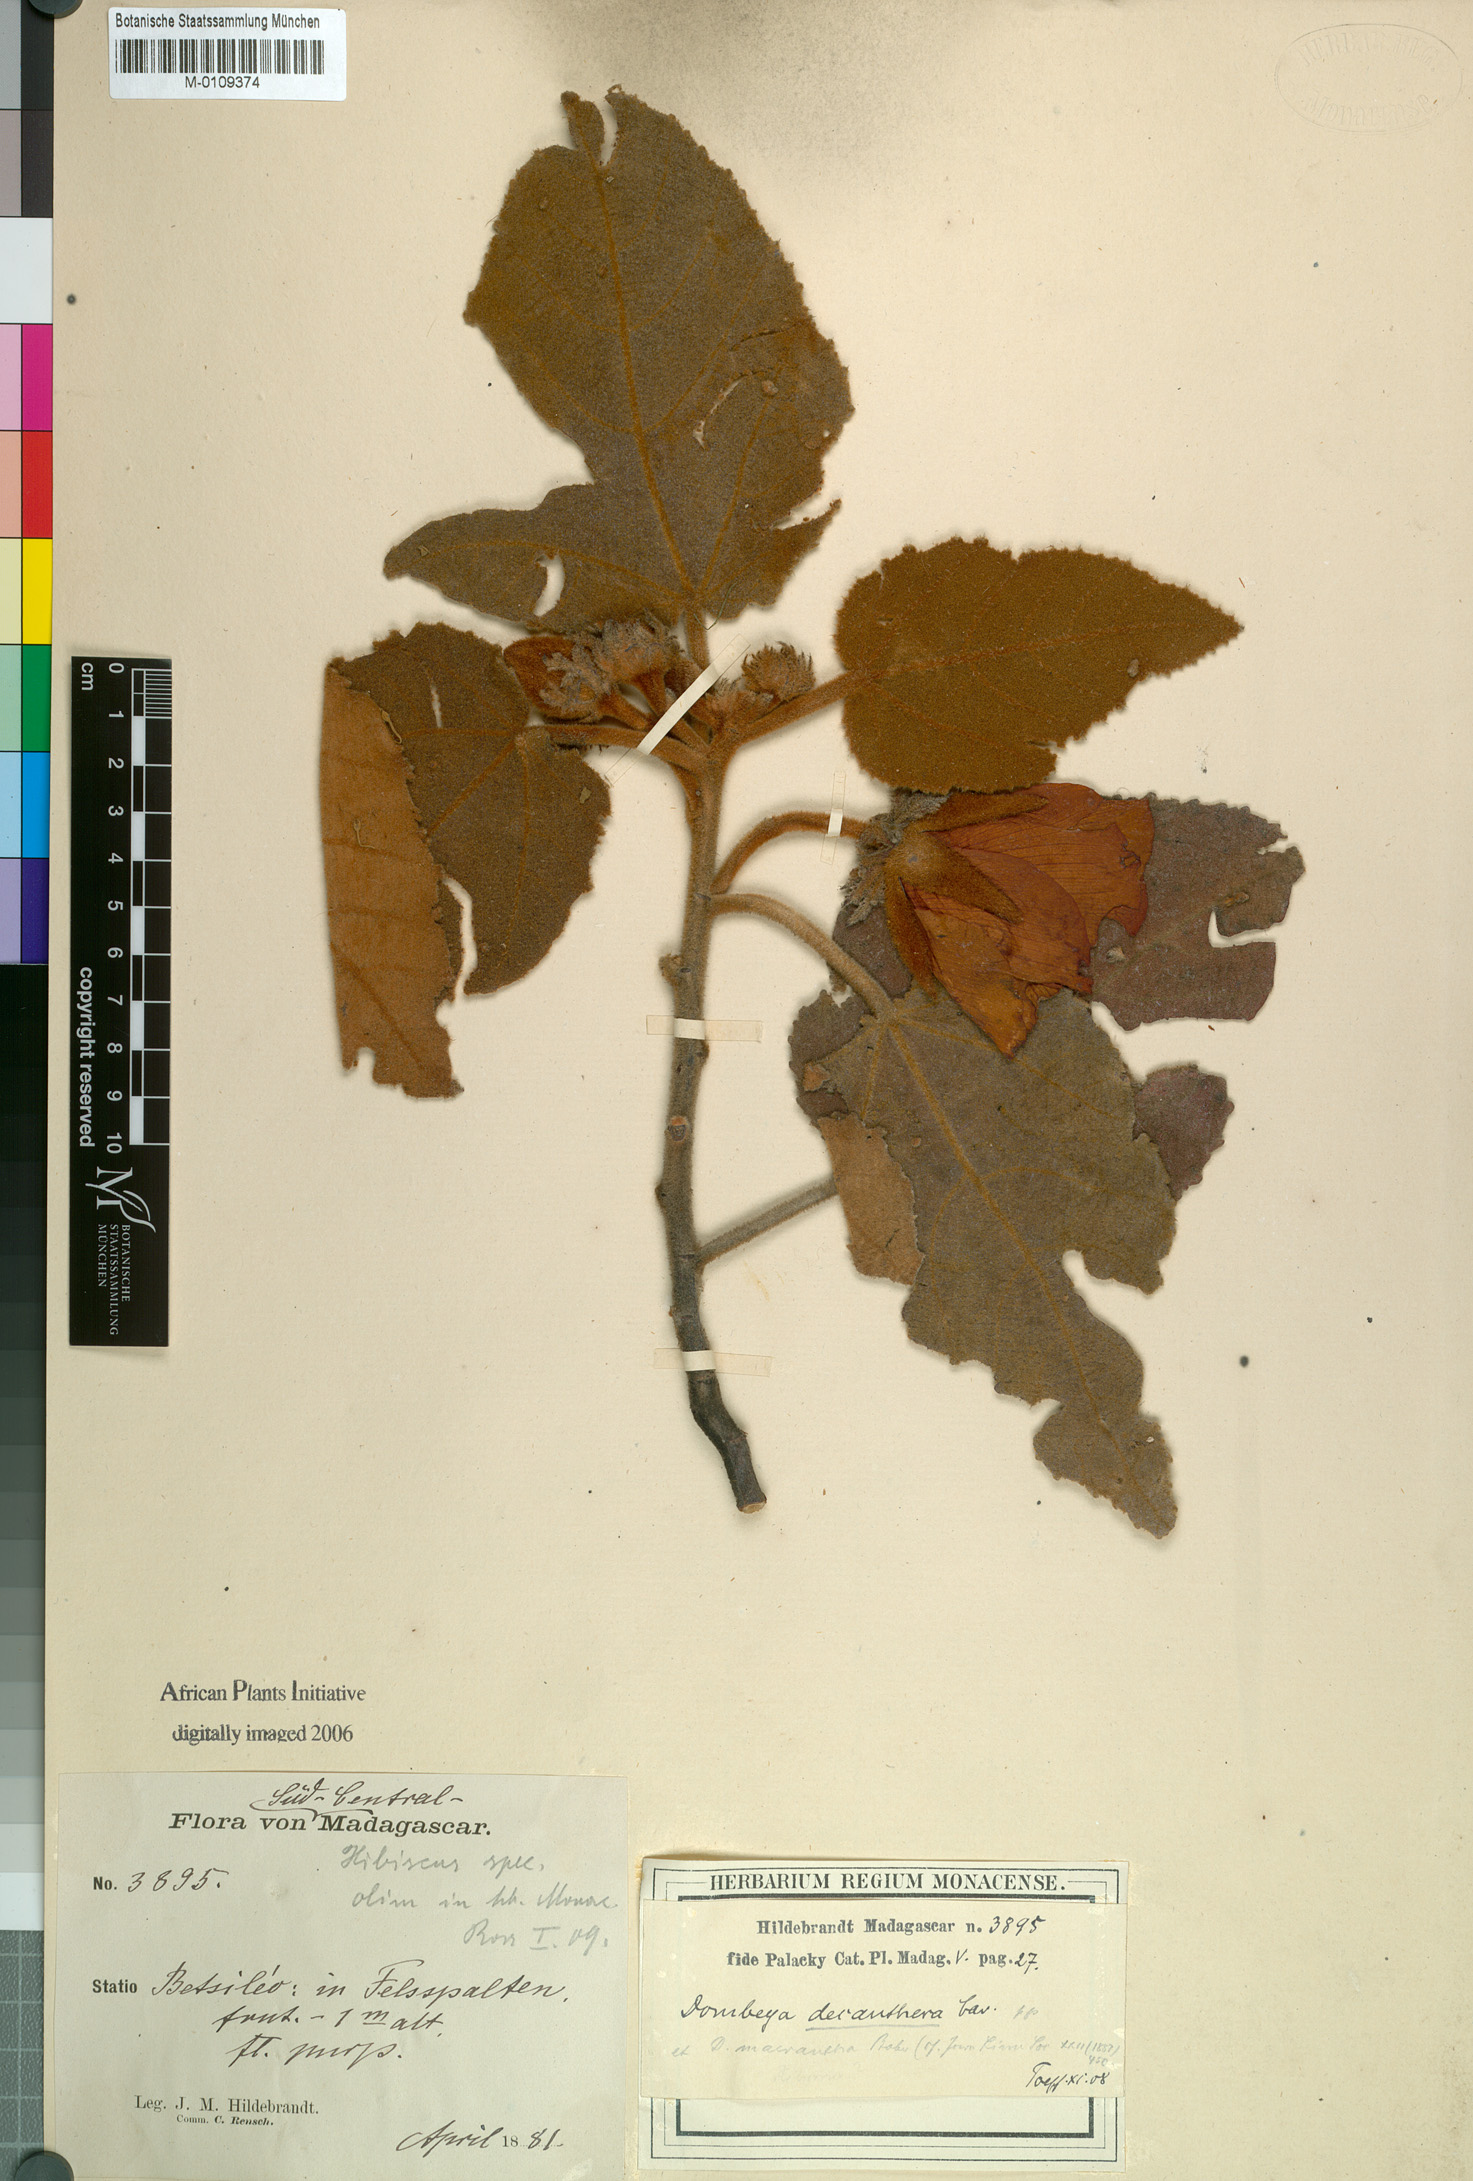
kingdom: Plantae
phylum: Tracheophyta
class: Magnoliopsida
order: Malvales
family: Malvaceae
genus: Andringitra
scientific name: Andringitra macrantha
